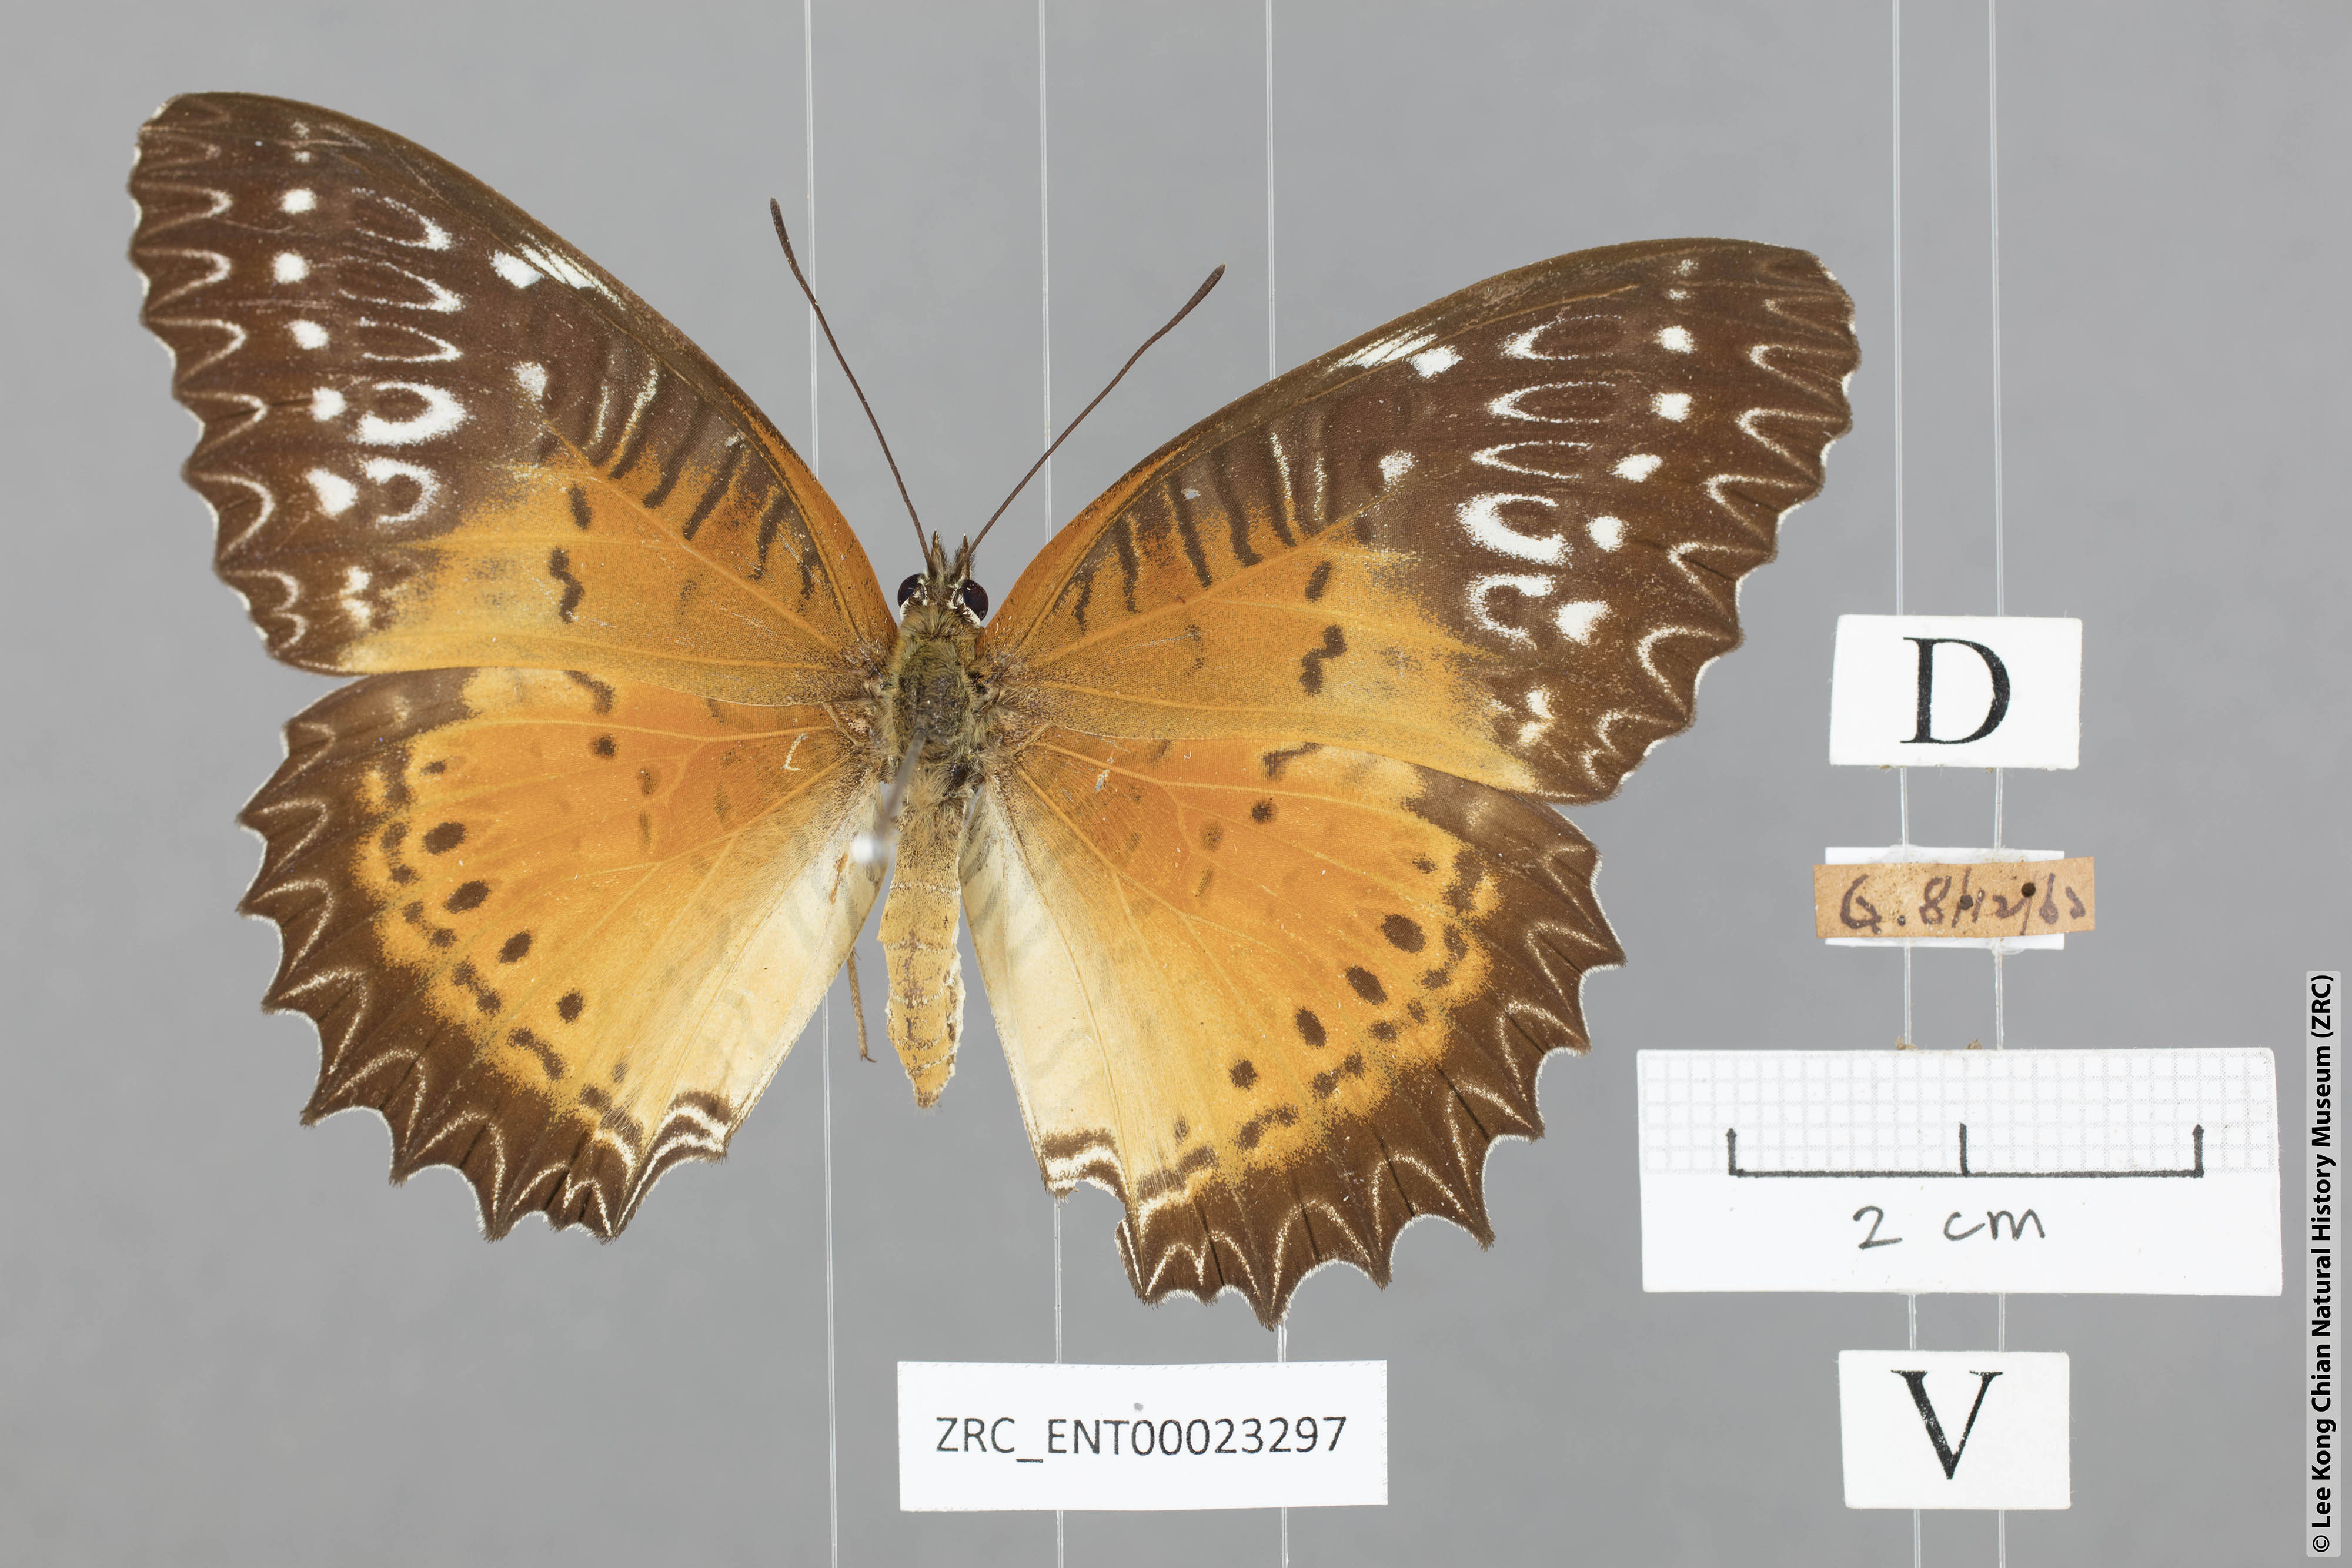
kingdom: Animalia
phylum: Arthropoda
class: Insecta
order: Lepidoptera
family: Nymphalidae
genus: Cethosia
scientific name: Cethosia biblis
